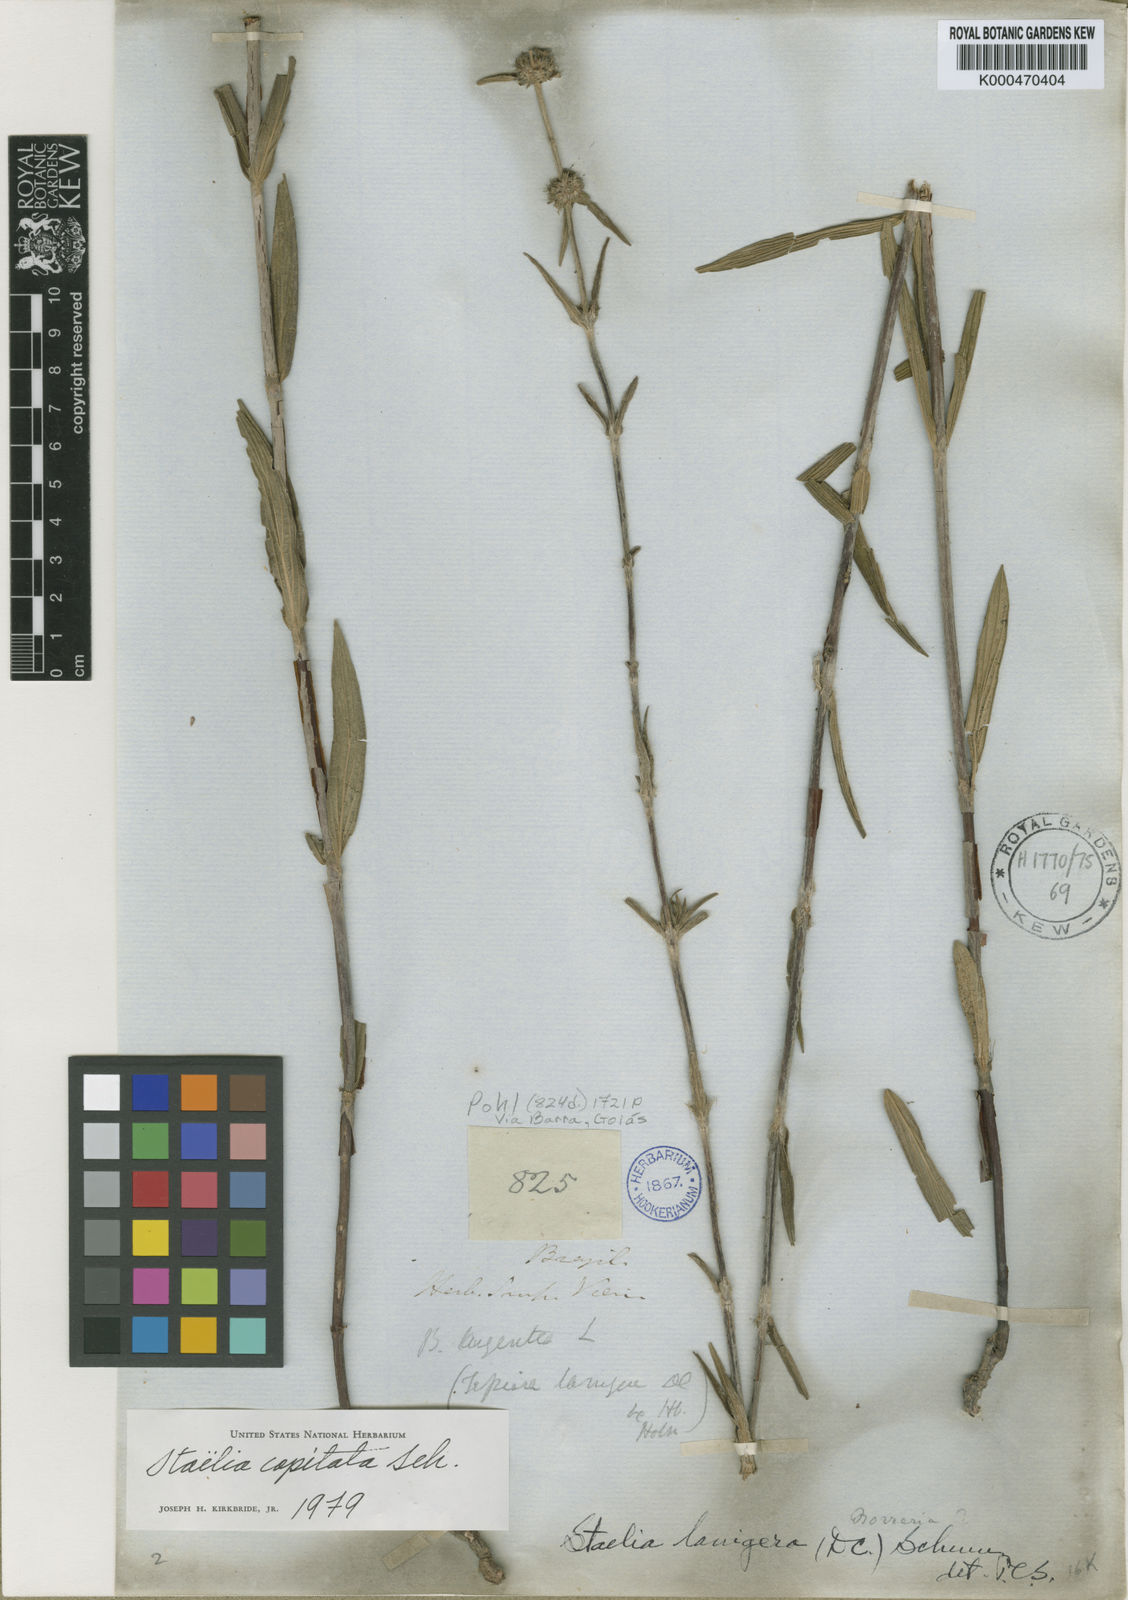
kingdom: Plantae
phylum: Tracheophyta
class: Magnoliopsida
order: Gentianales
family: Rubiaceae
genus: Planaltina
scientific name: Planaltina capitata
